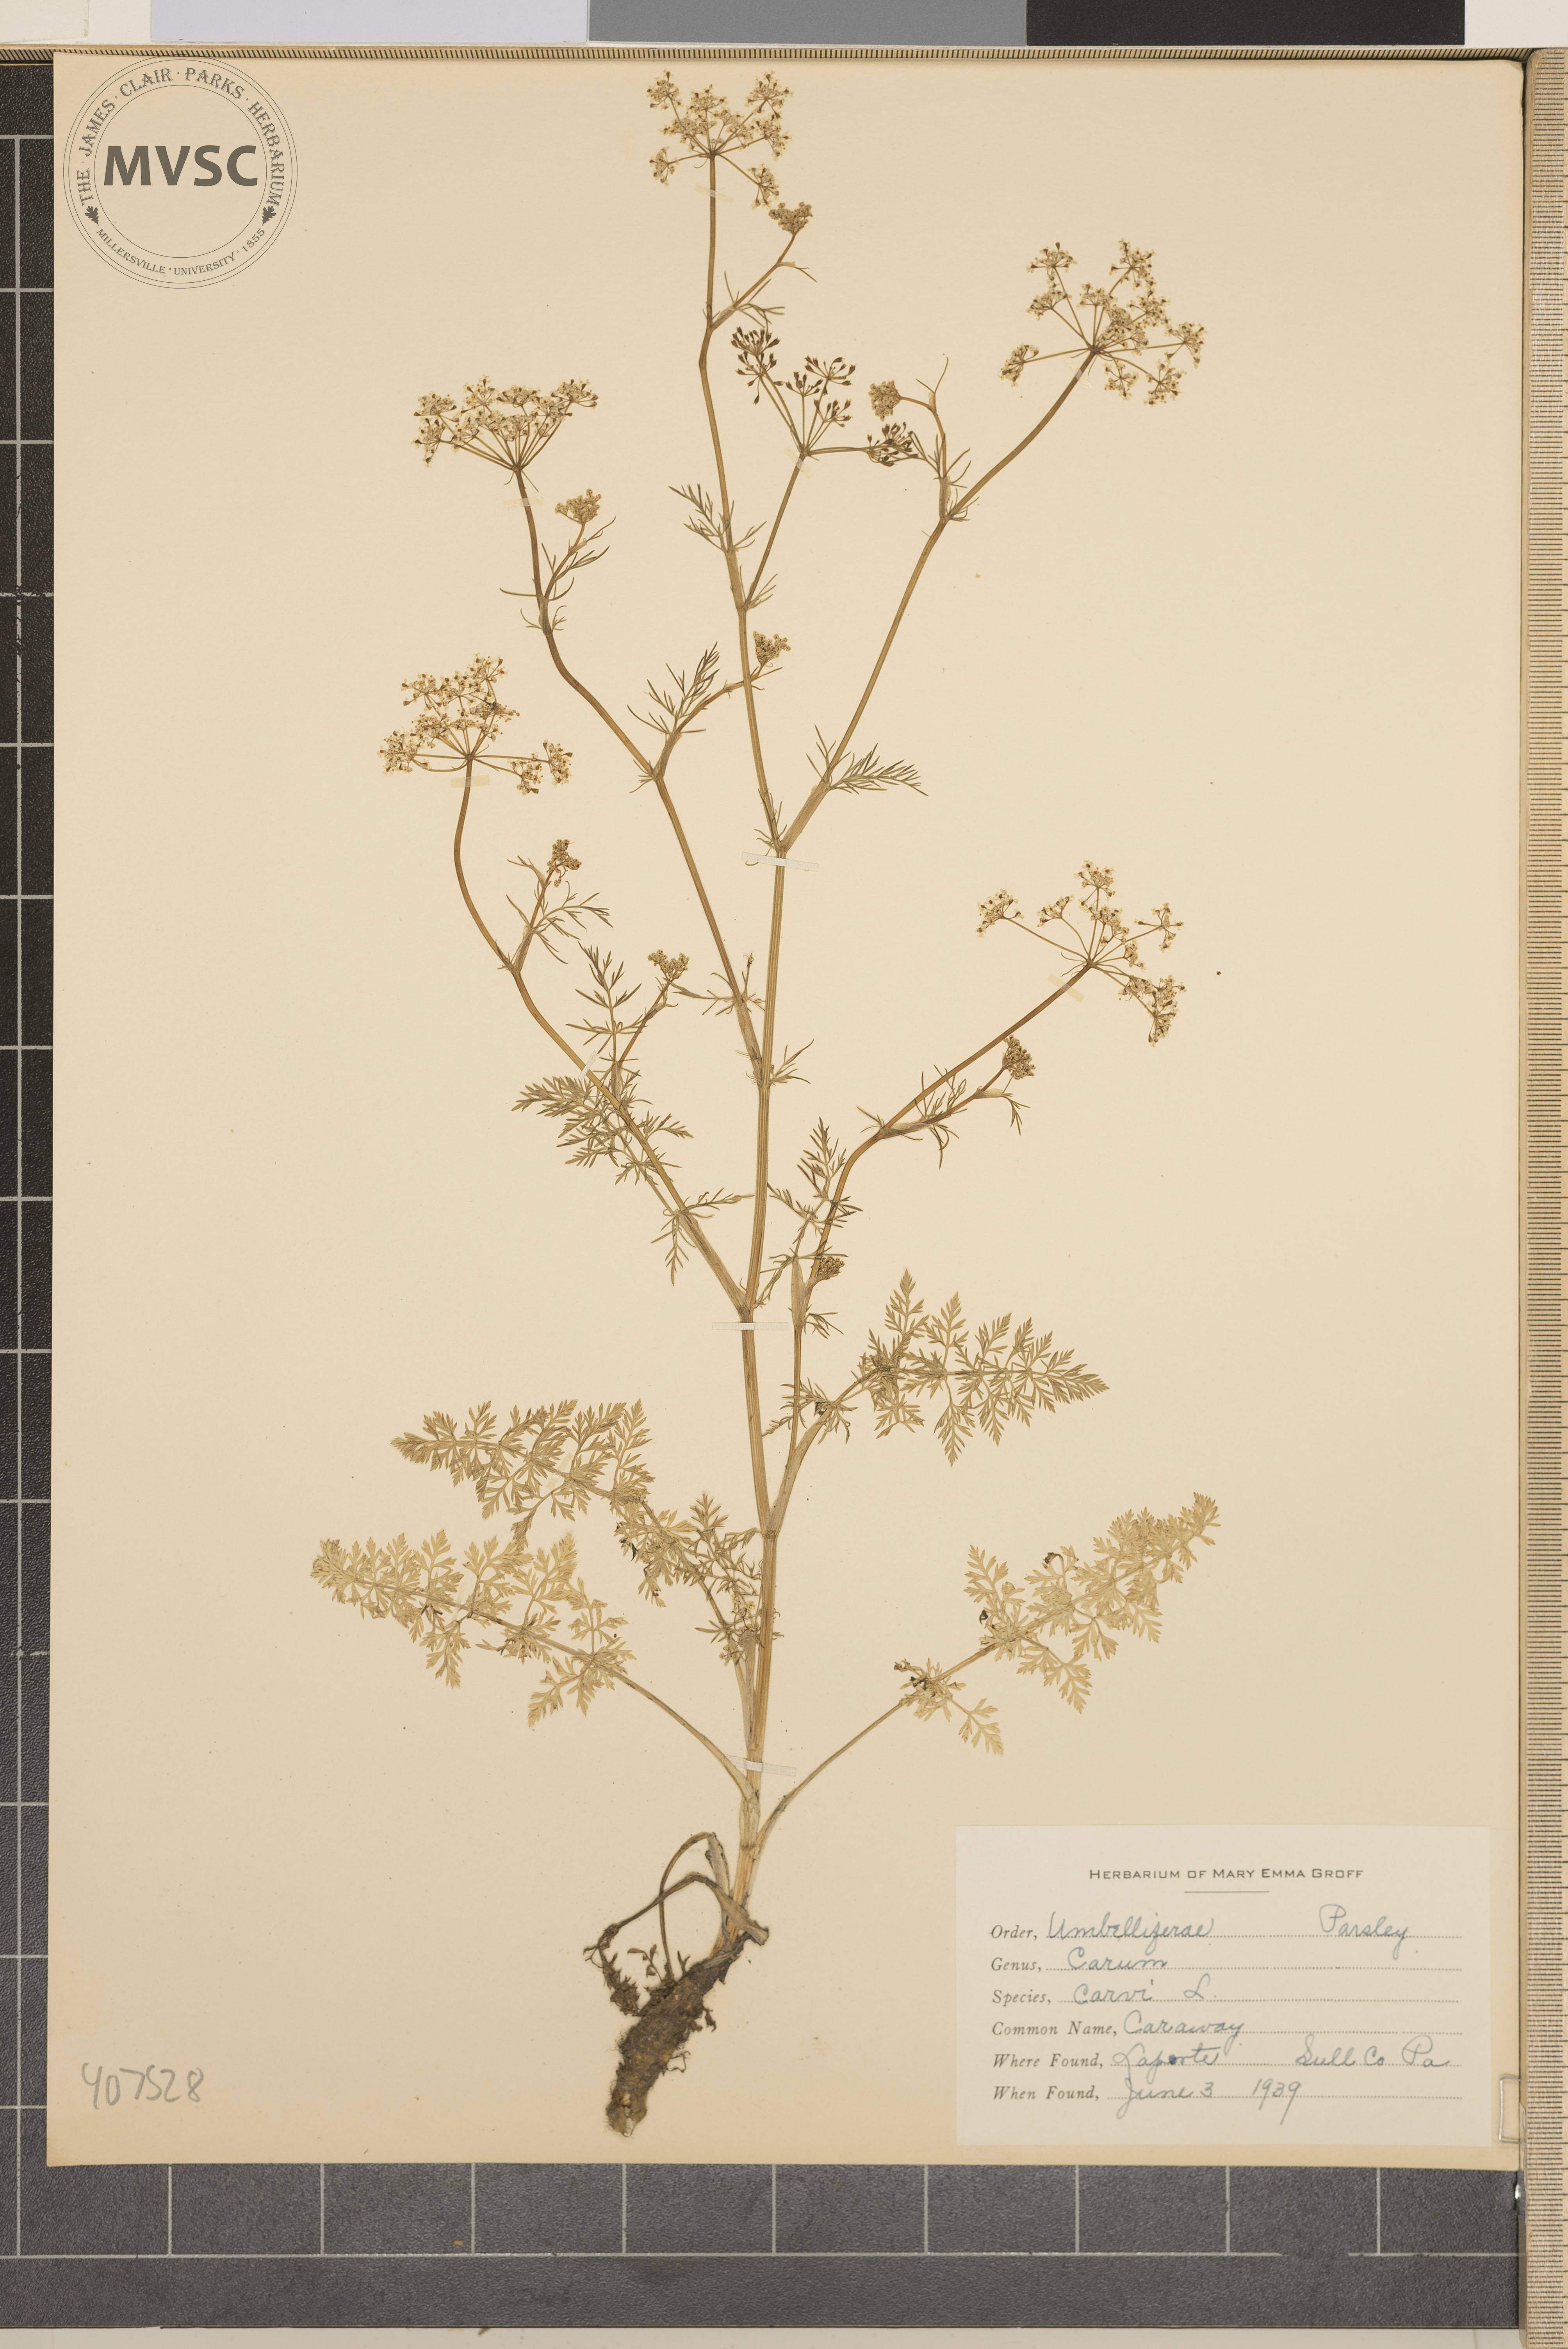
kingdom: Plantae
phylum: Tracheophyta
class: Magnoliopsida
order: Apiales
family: Apiaceae
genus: Carum
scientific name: Carum carvi
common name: Caraway
